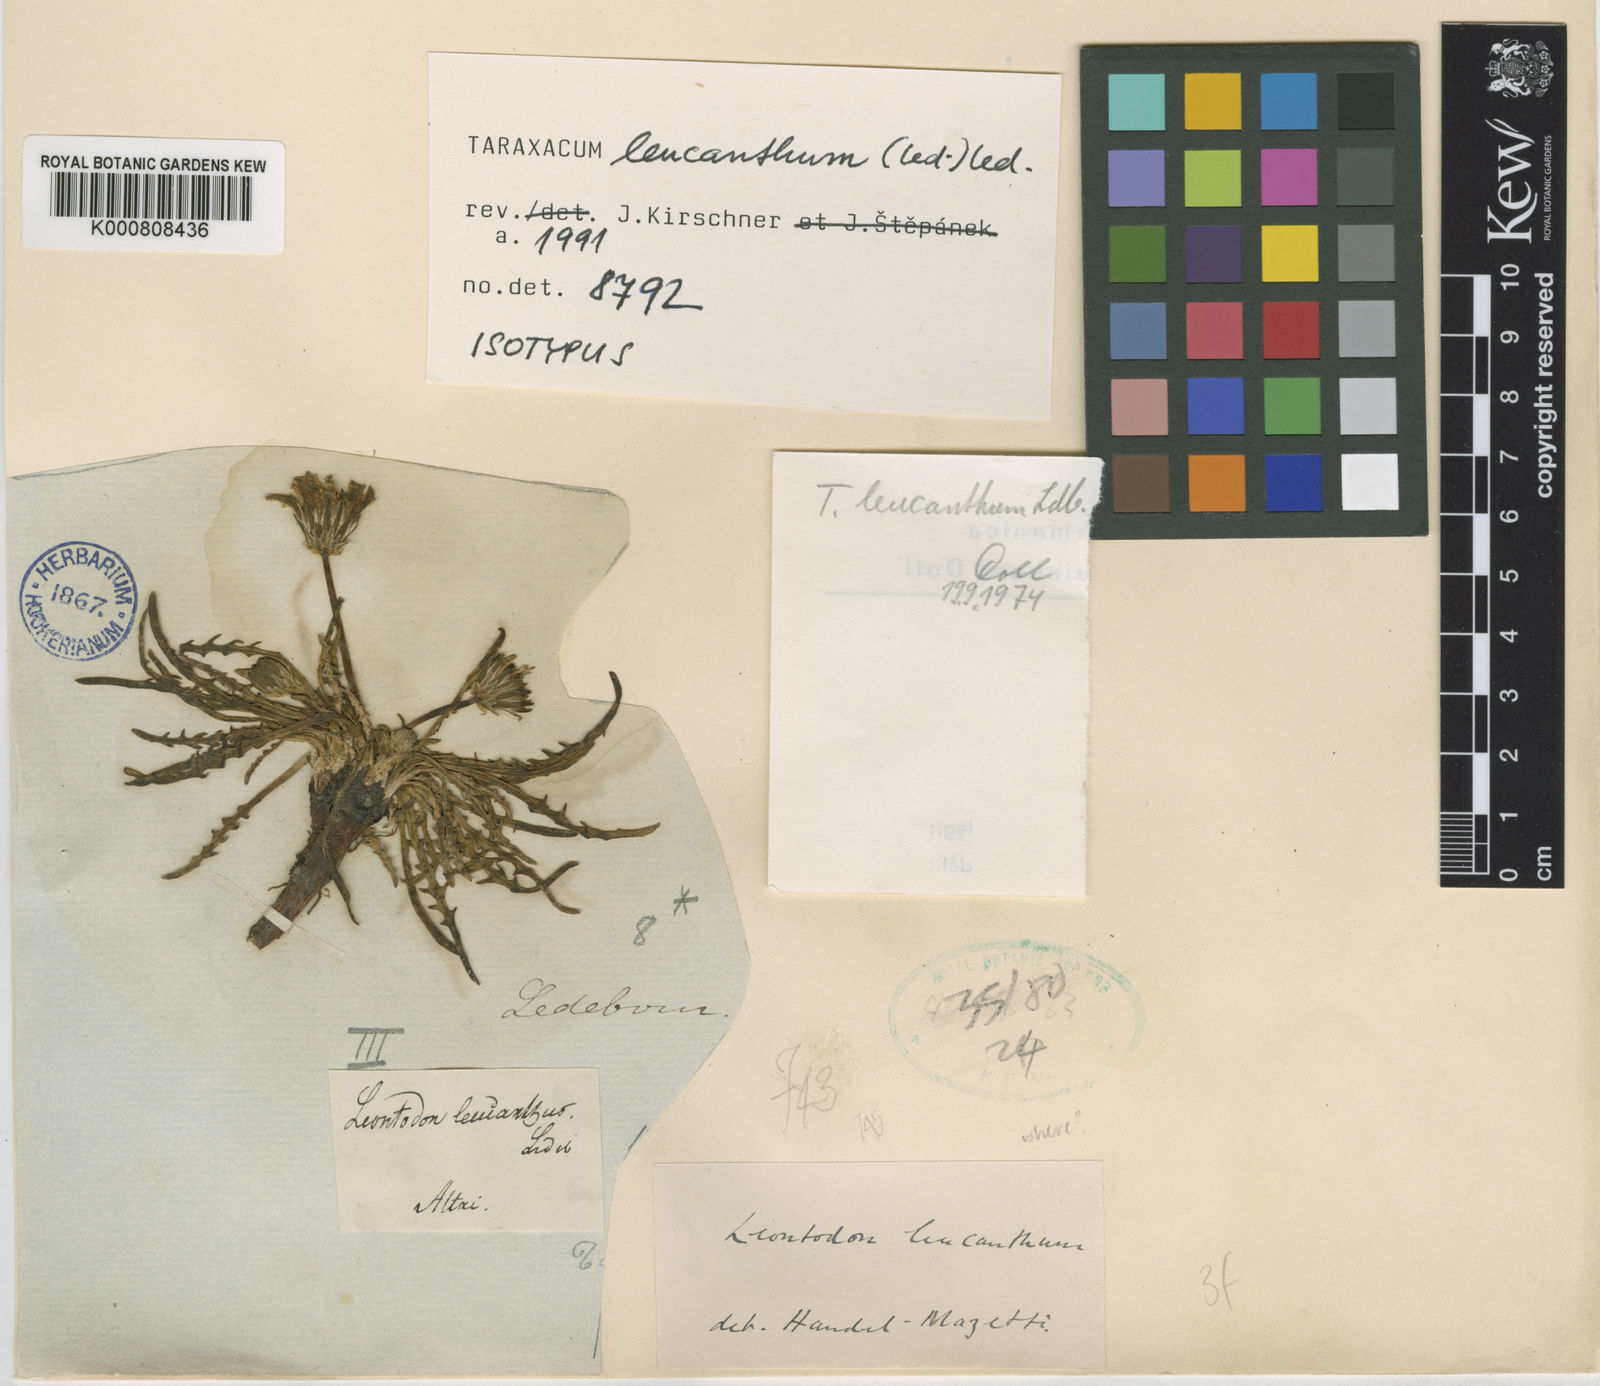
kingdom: Plantae
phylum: Tracheophyta
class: Magnoliopsida
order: Asterales
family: Asteraceae
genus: Taraxacum
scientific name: Taraxacum leucanthum
